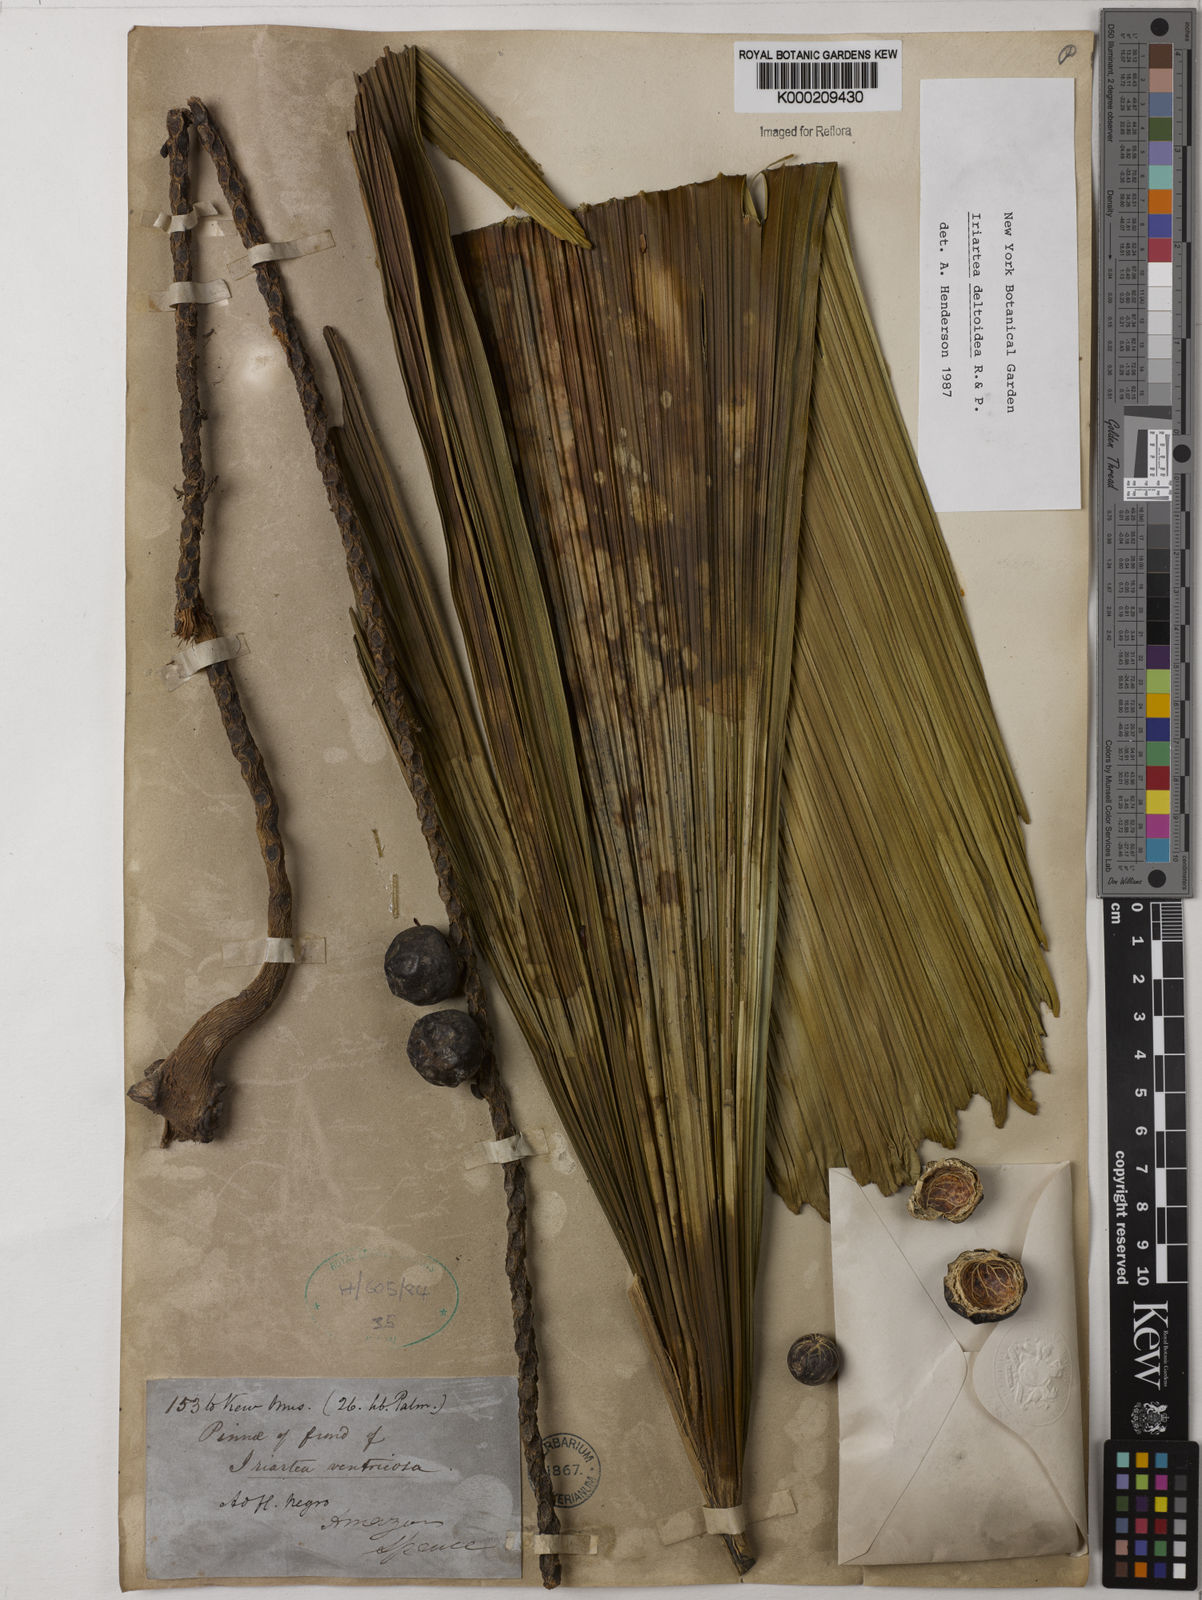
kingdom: Plantae
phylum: Tracheophyta
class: Liliopsida
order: Arecales
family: Arecaceae
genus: Iriartea
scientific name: Iriartea deltoidea
